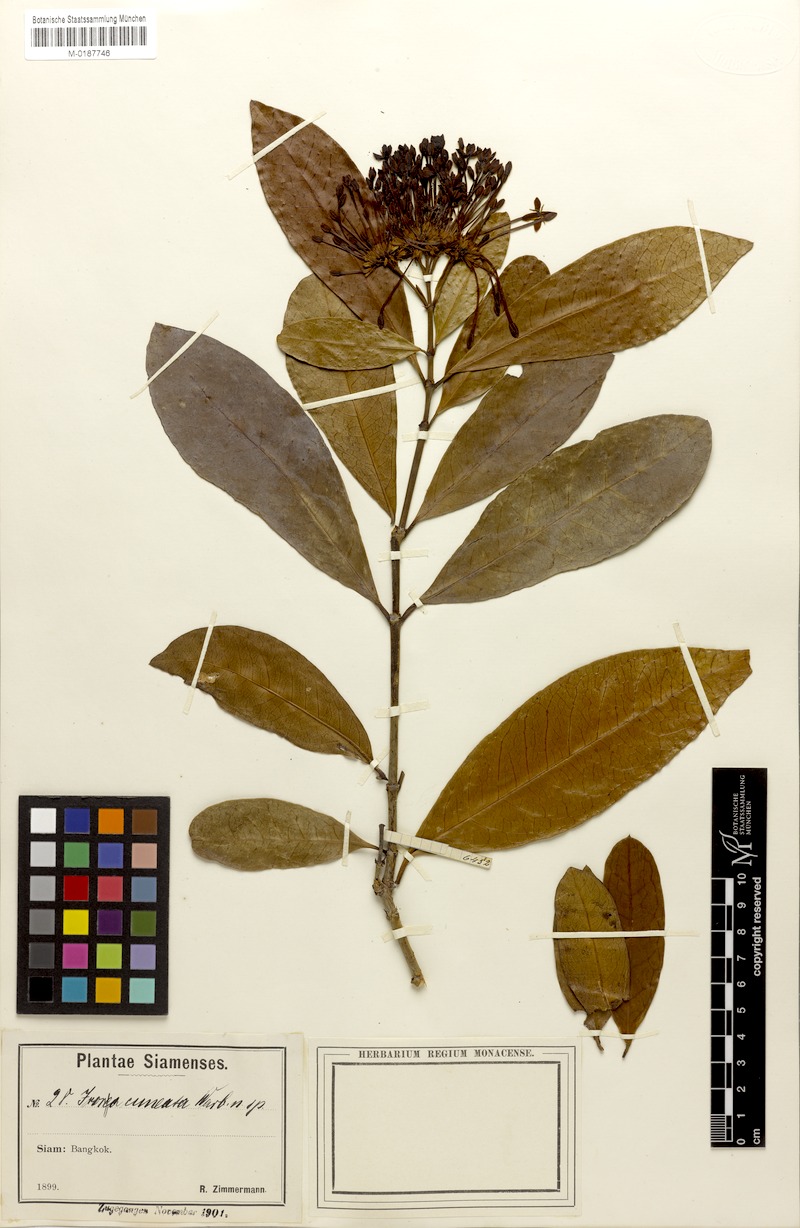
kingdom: Plantae
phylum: Tracheophyta
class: Magnoliopsida
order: Gentianales
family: Rubiaceae
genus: Ixora
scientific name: Ixora finlaysoniana
